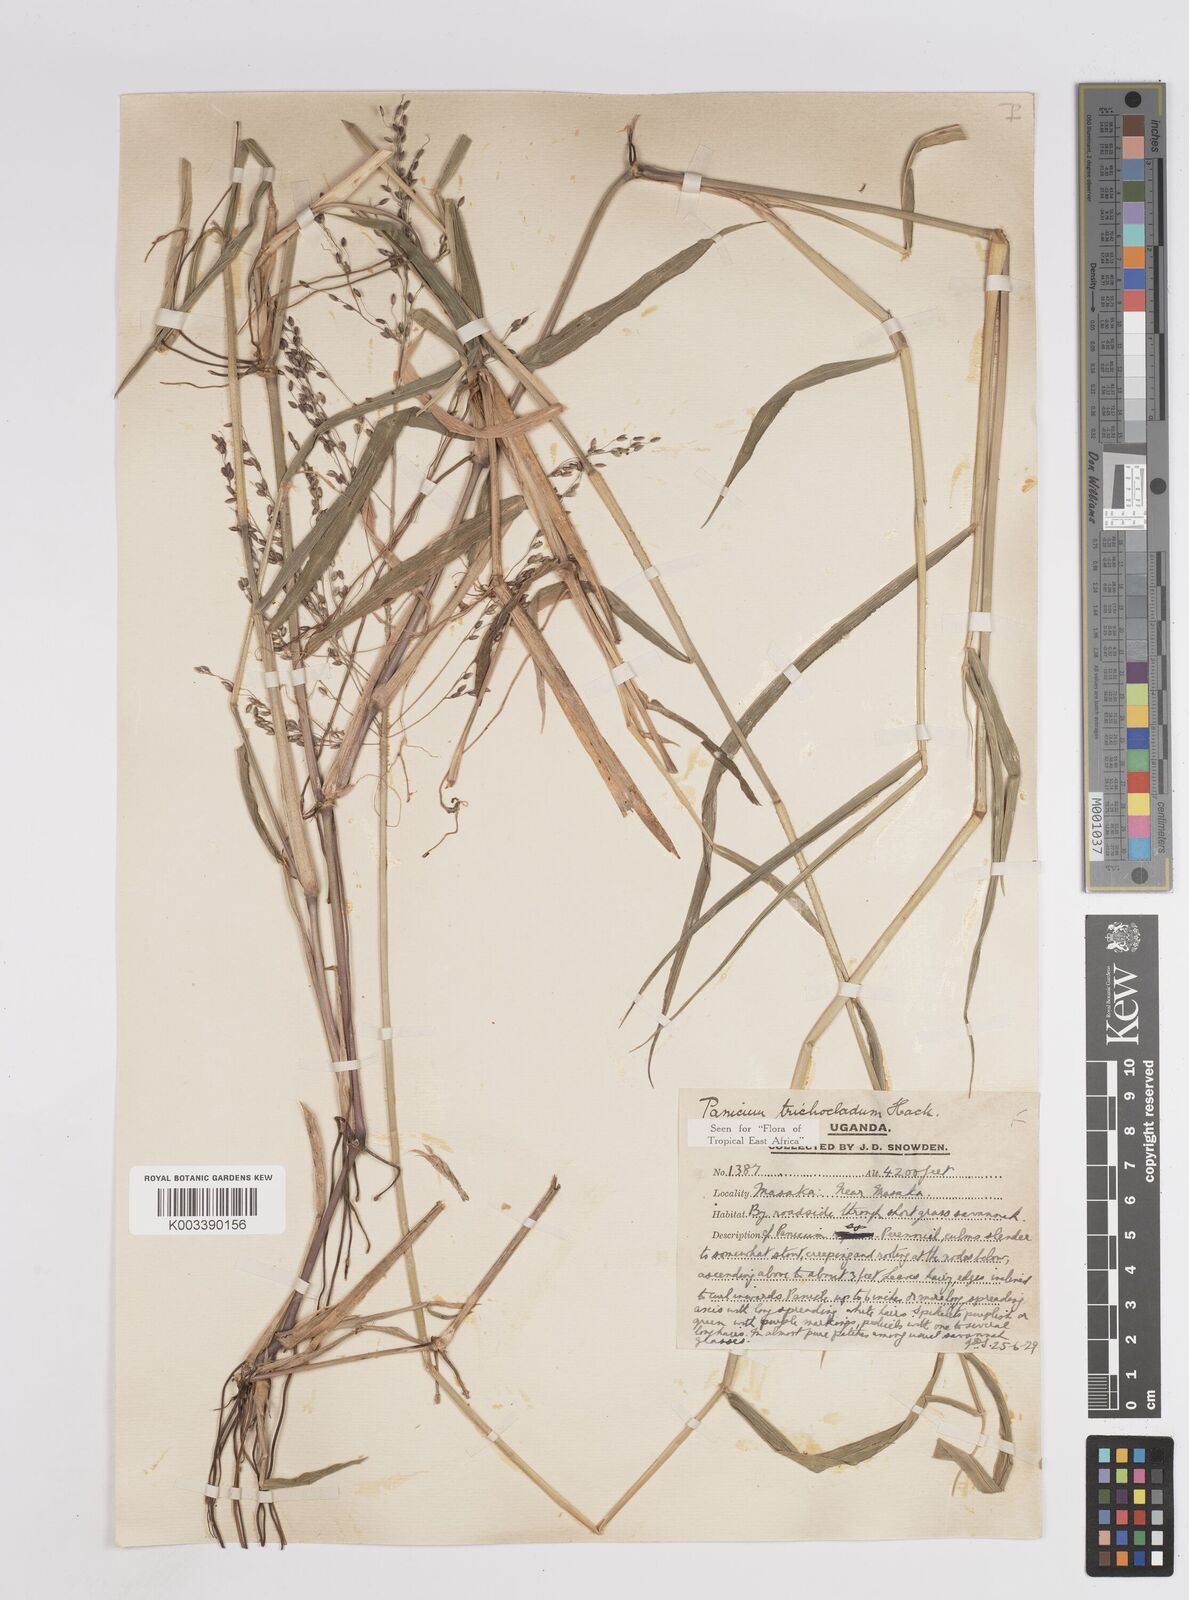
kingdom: Plantae
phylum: Tracheophyta
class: Liliopsida
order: Poales
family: Poaceae
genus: Megathyrsus
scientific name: Megathyrsus maximus
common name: Guineagrass
